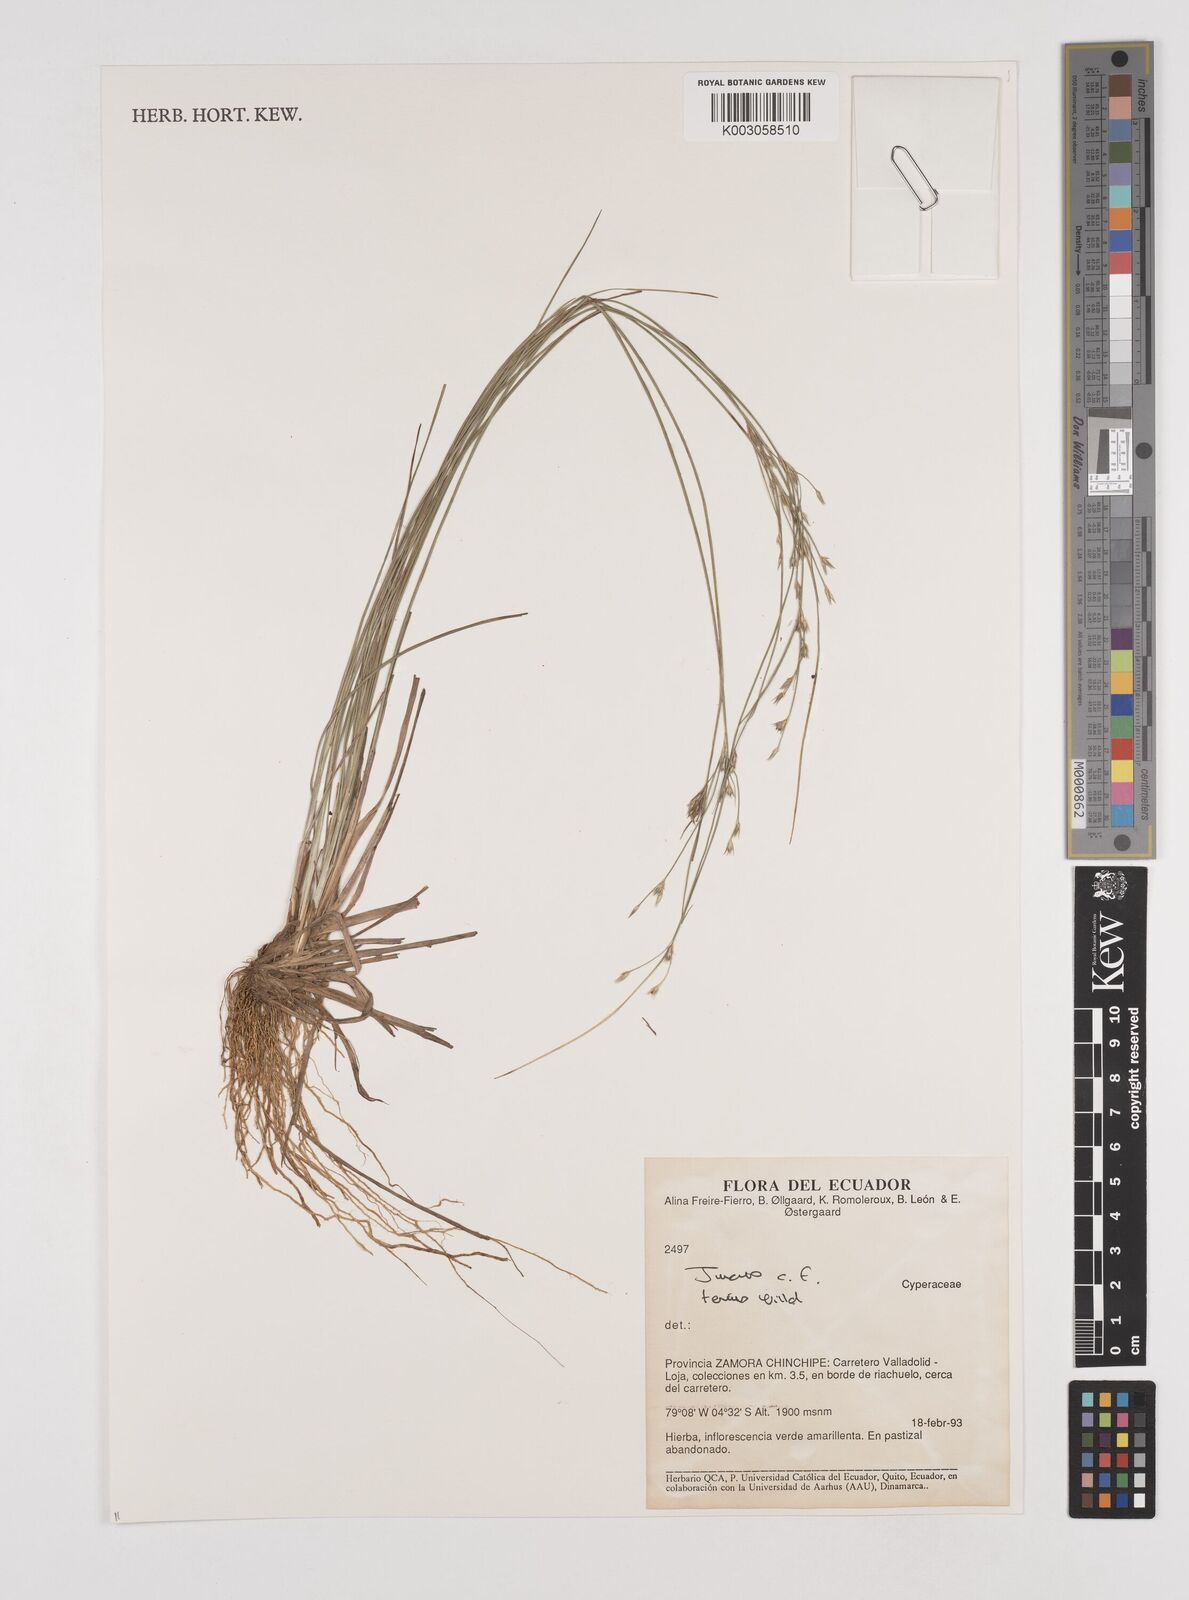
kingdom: Plantae
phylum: Tracheophyta
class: Liliopsida
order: Poales
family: Juncaceae
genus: Juncus
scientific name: Juncus tenuis
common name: Slender rush
